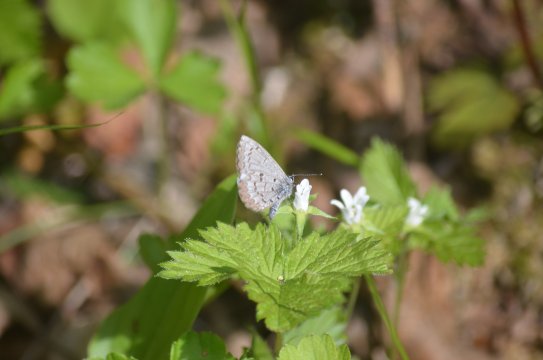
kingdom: Animalia
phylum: Arthropoda
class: Insecta
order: Lepidoptera
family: Lycaenidae
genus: Celastrina
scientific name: Celastrina lucia
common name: Northern Spring Azure
